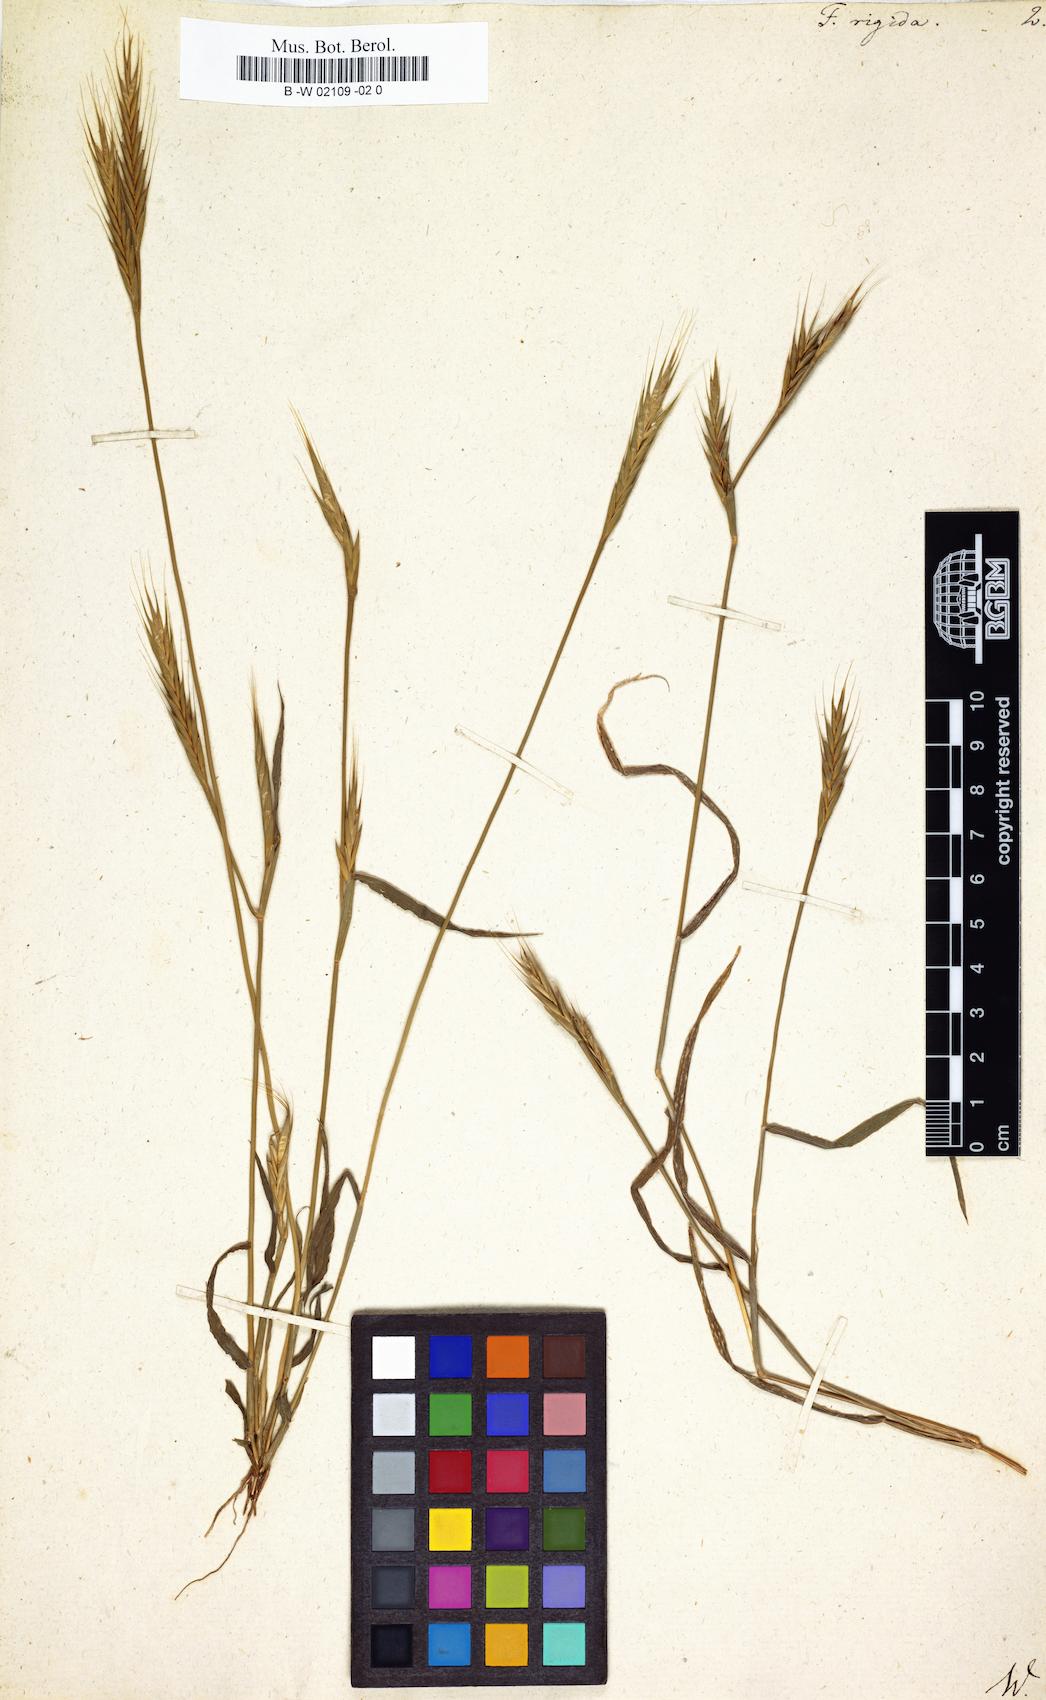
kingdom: Plantae
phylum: Tracheophyta
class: Liliopsida
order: Poales
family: Poaceae
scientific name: Poaceae
